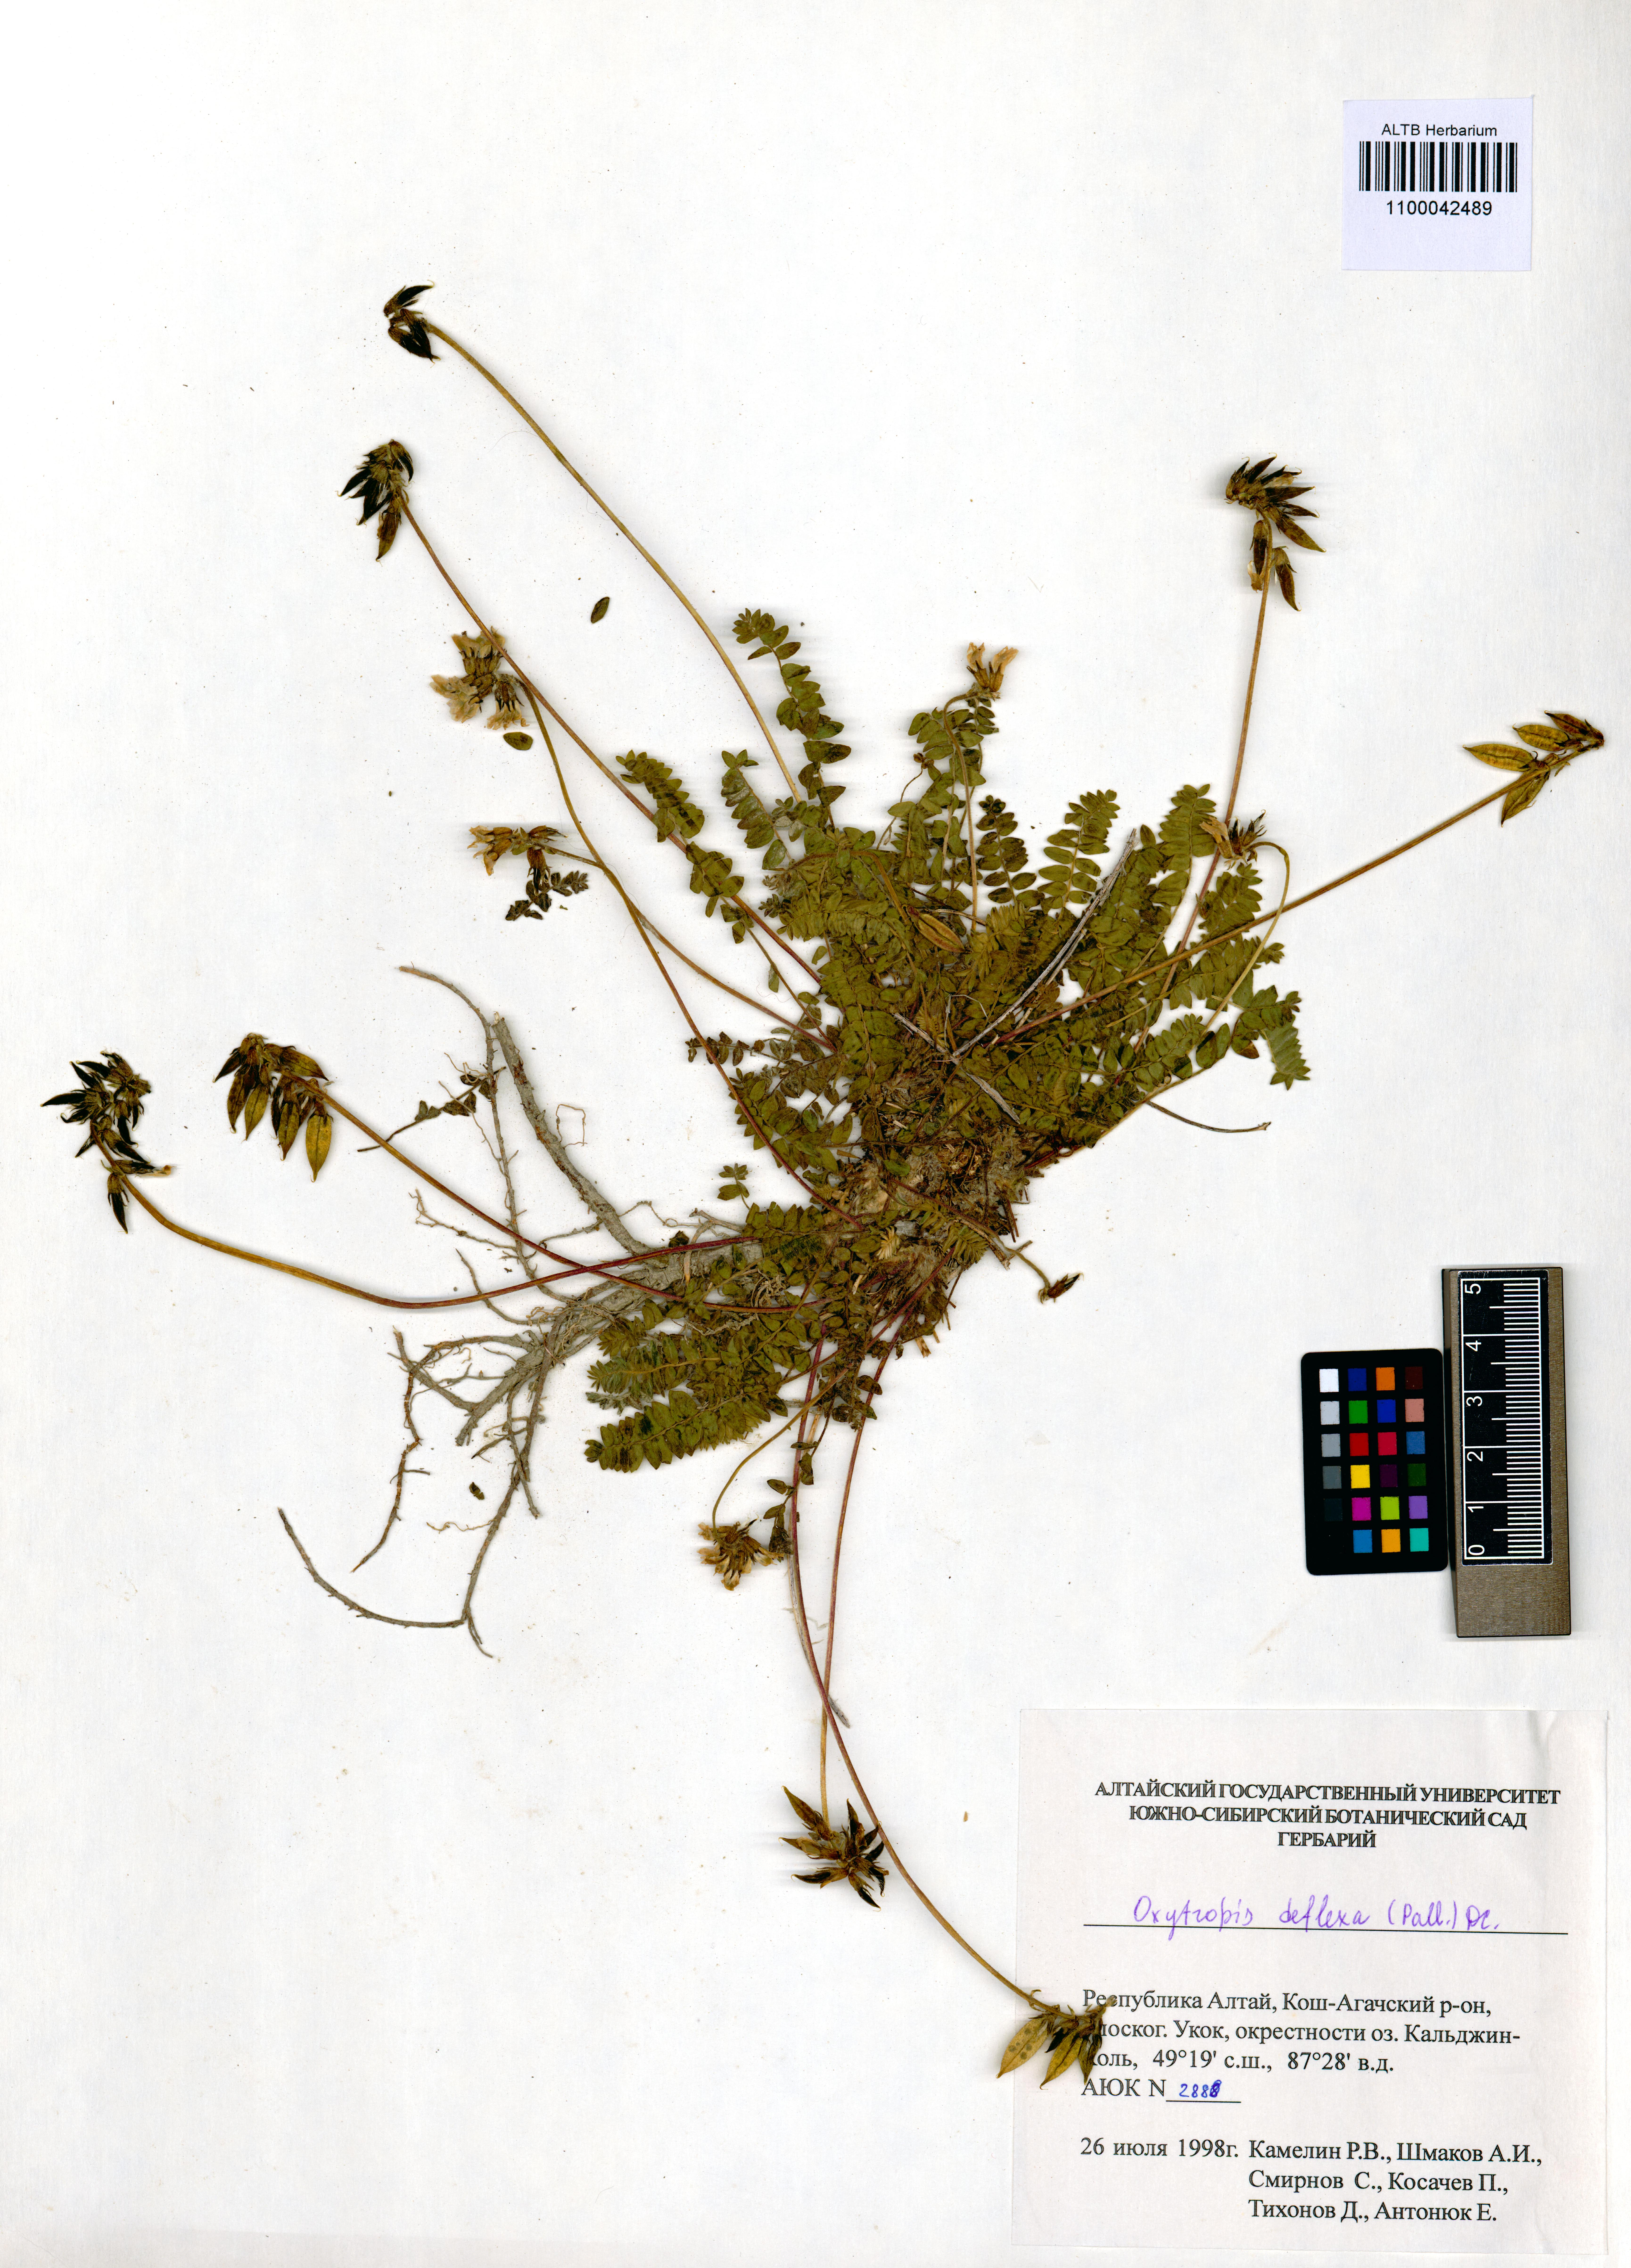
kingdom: Plantae
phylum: Tracheophyta
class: Magnoliopsida
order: Fabales
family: Fabaceae
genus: Oxytropis
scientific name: Oxytropis deflexa
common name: Stemmed oxytrope
